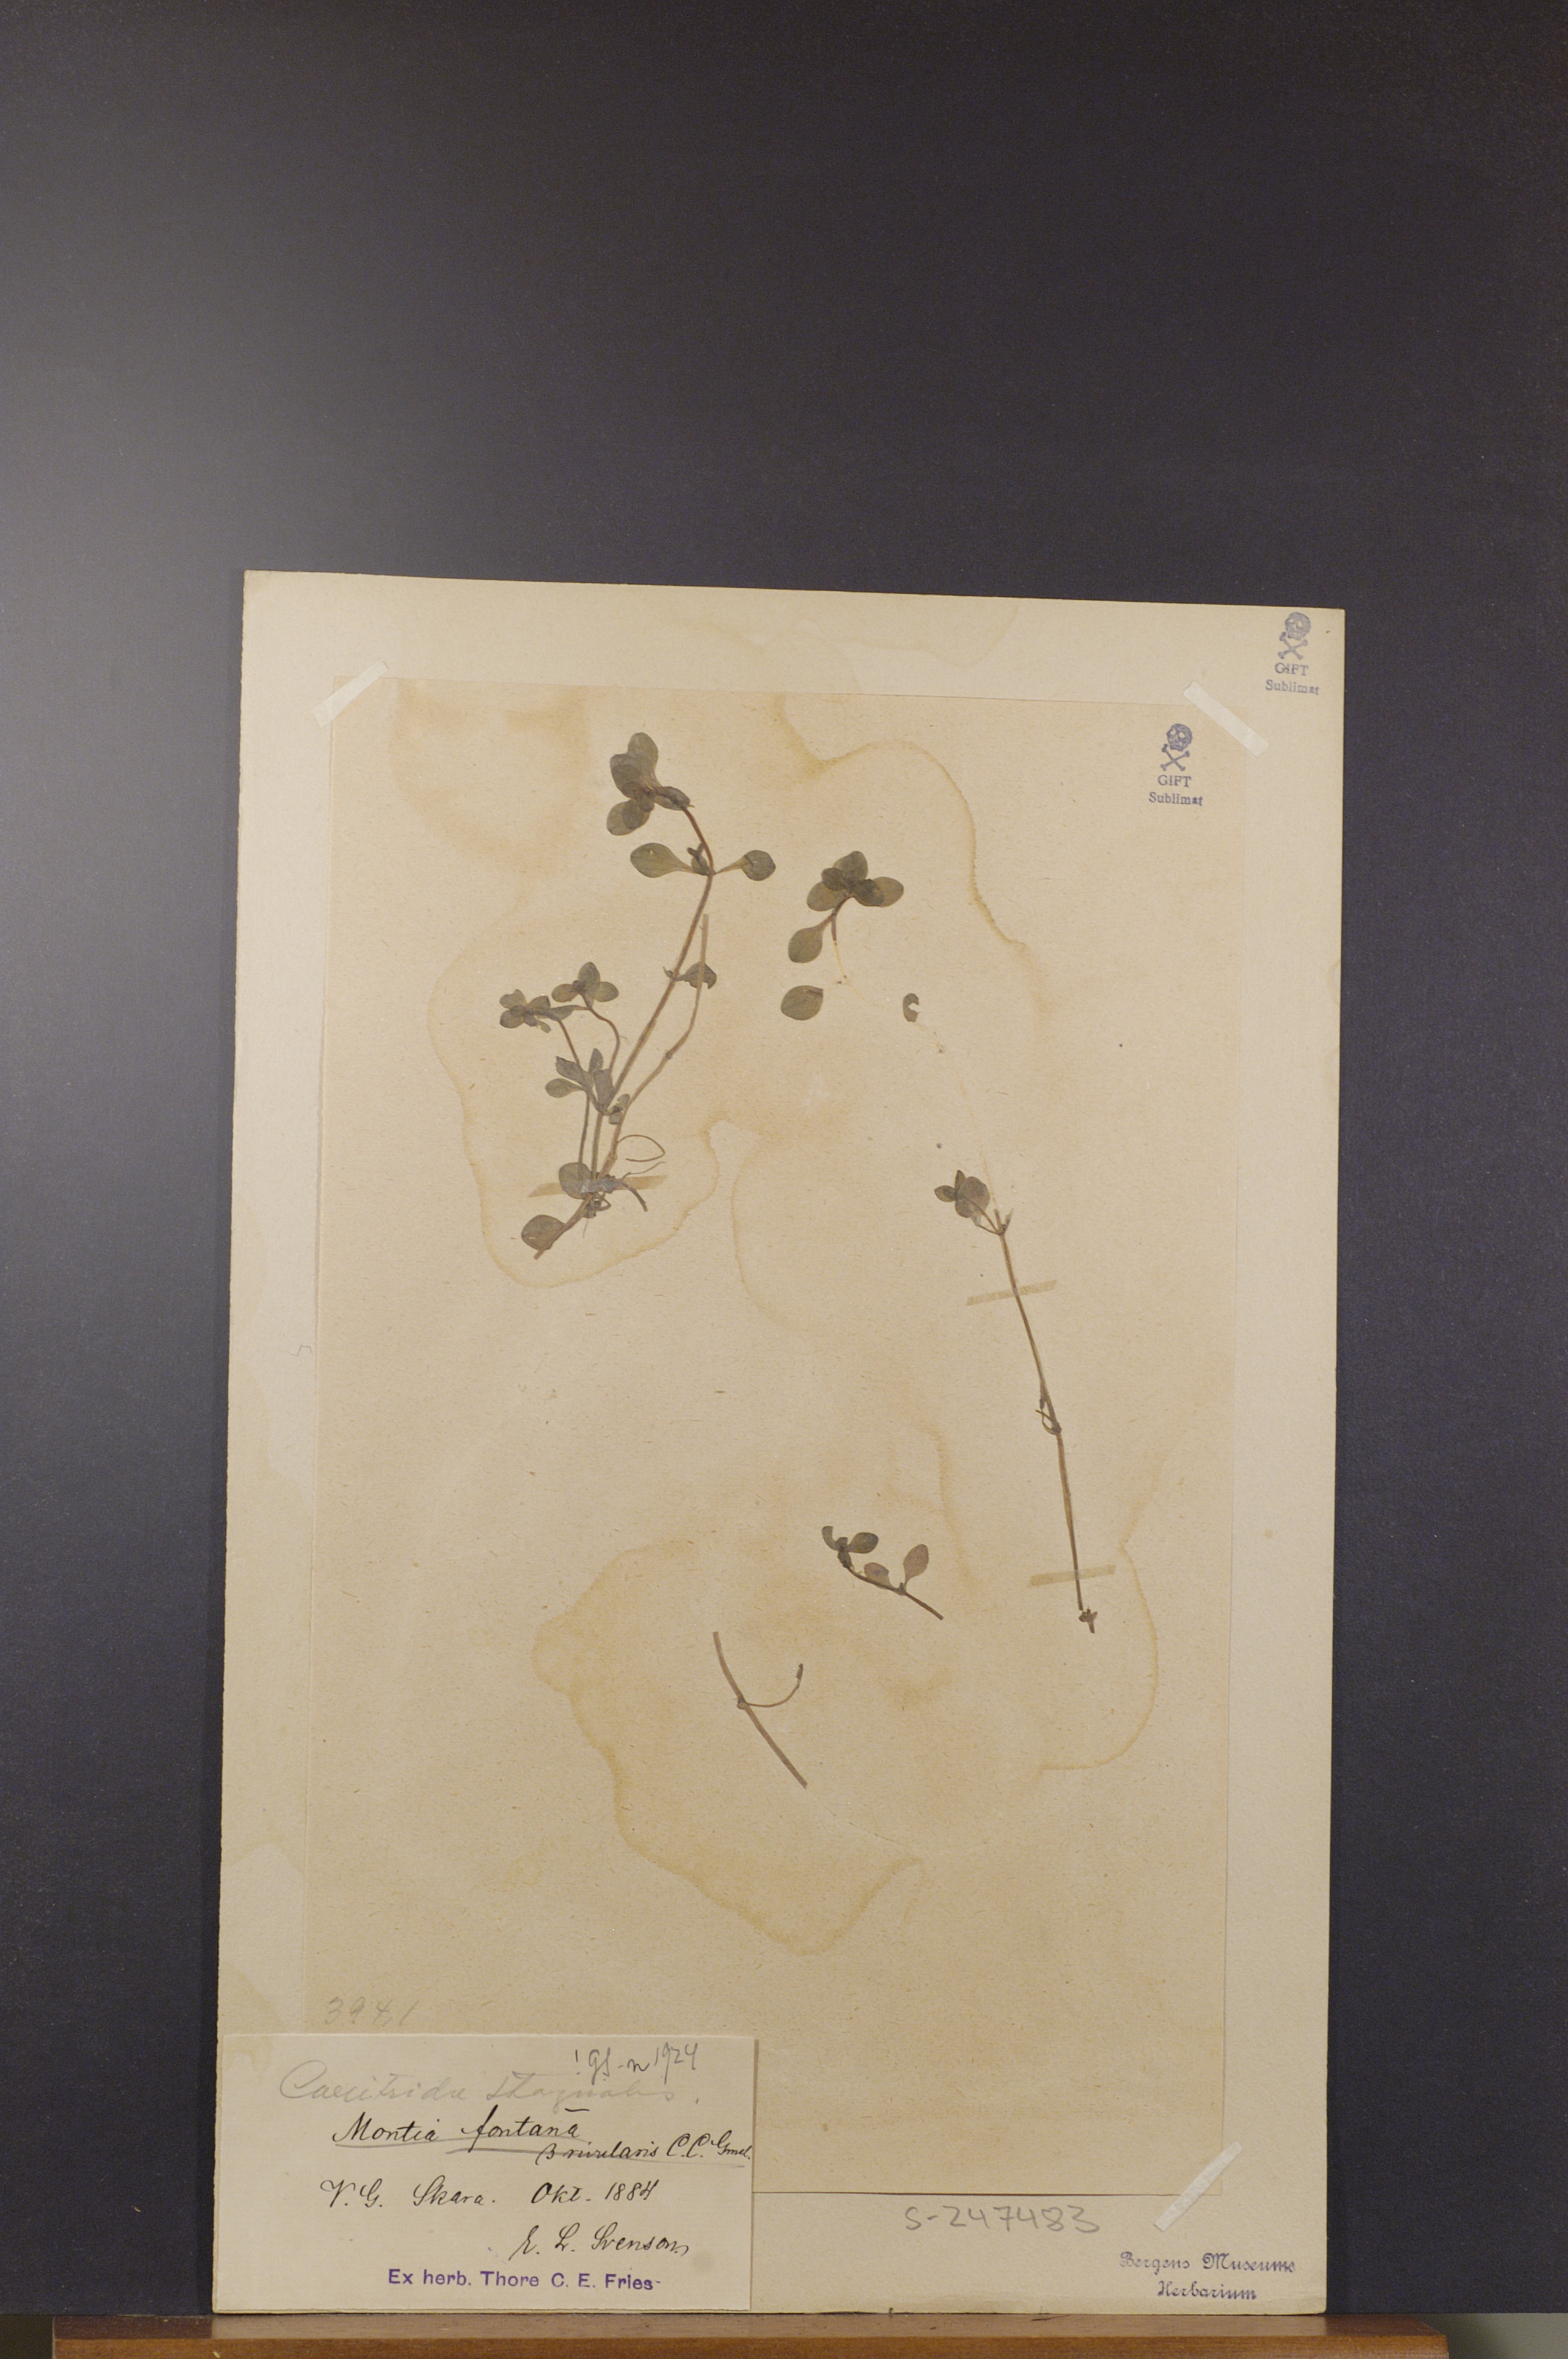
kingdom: Plantae
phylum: Tracheophyta
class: Magnoliopsida
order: Lamiales
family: Plantaginaceae
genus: Callitriche
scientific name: Callitriche stagnalis
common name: Common water-starwort
